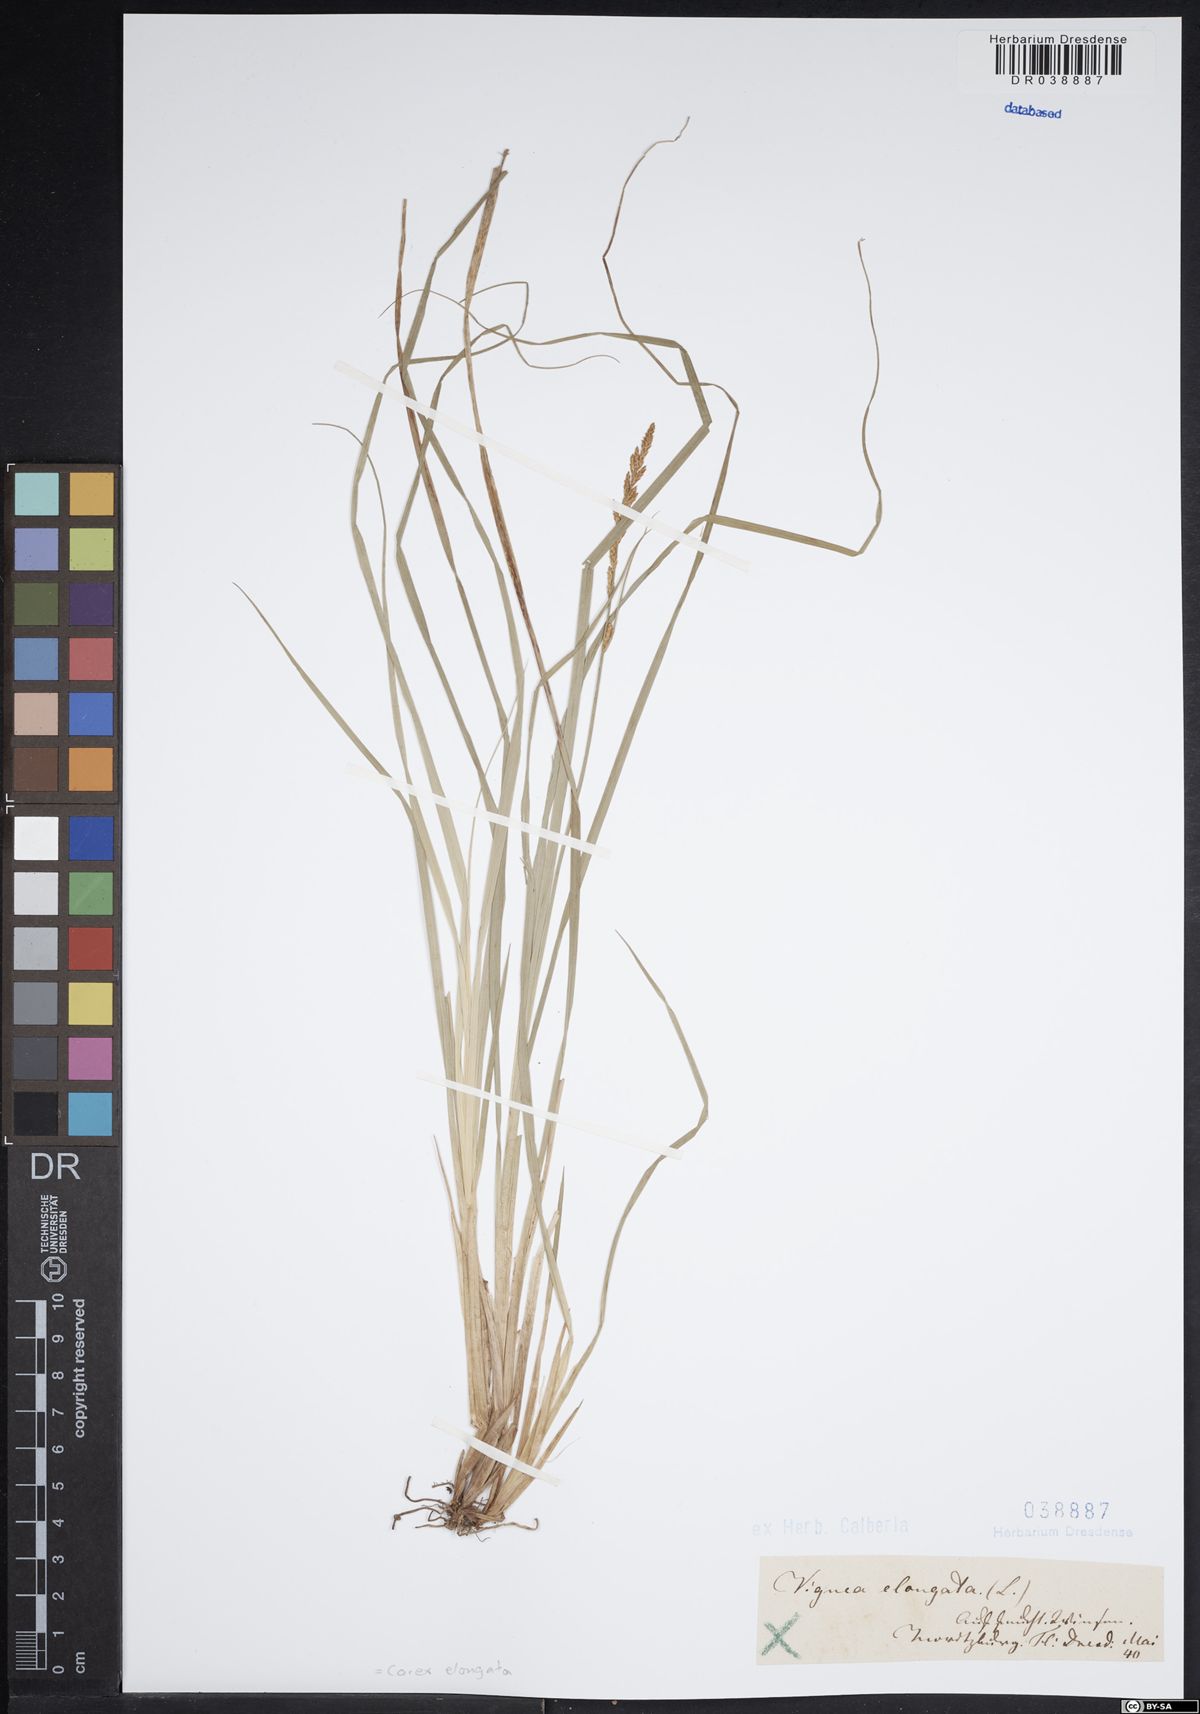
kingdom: Plantae
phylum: Tracheophyta
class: Liliopsida
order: Poales
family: Cyperaceae
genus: Carex
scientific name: Carex elongata
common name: Elongated sedge
